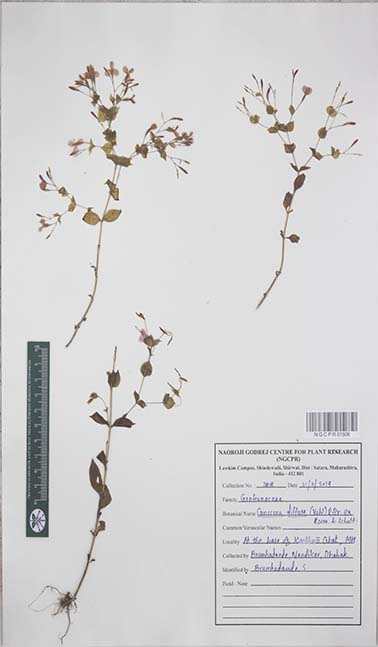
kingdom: Plantae
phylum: Tracheophyta
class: Magnoliopsida
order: Gentianales
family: Gentianaceae
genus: Canscora
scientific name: Canscora diffusa
